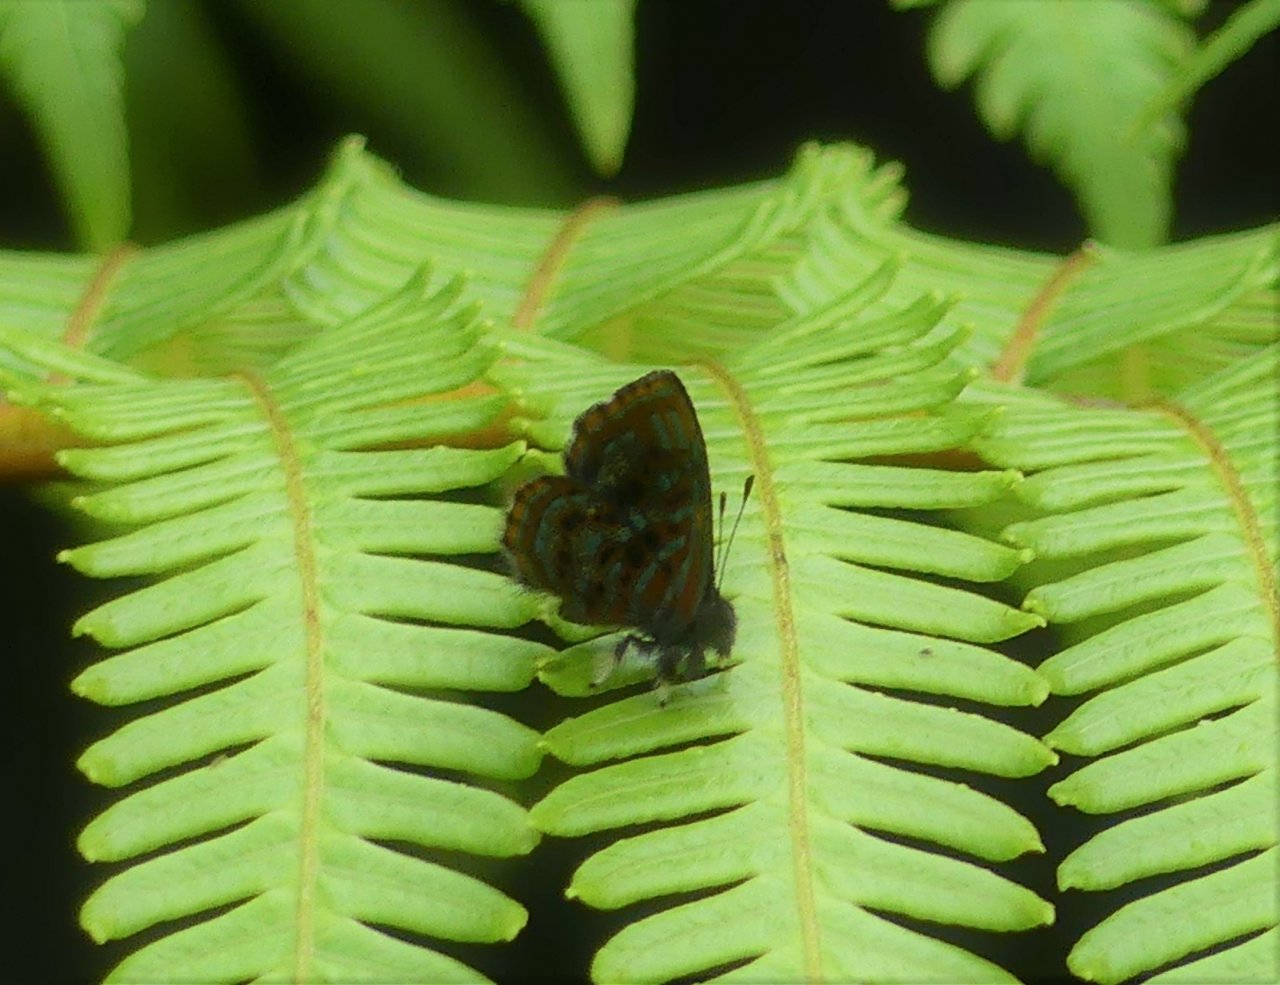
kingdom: Animalia
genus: Charis
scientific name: Charis acanthoides
